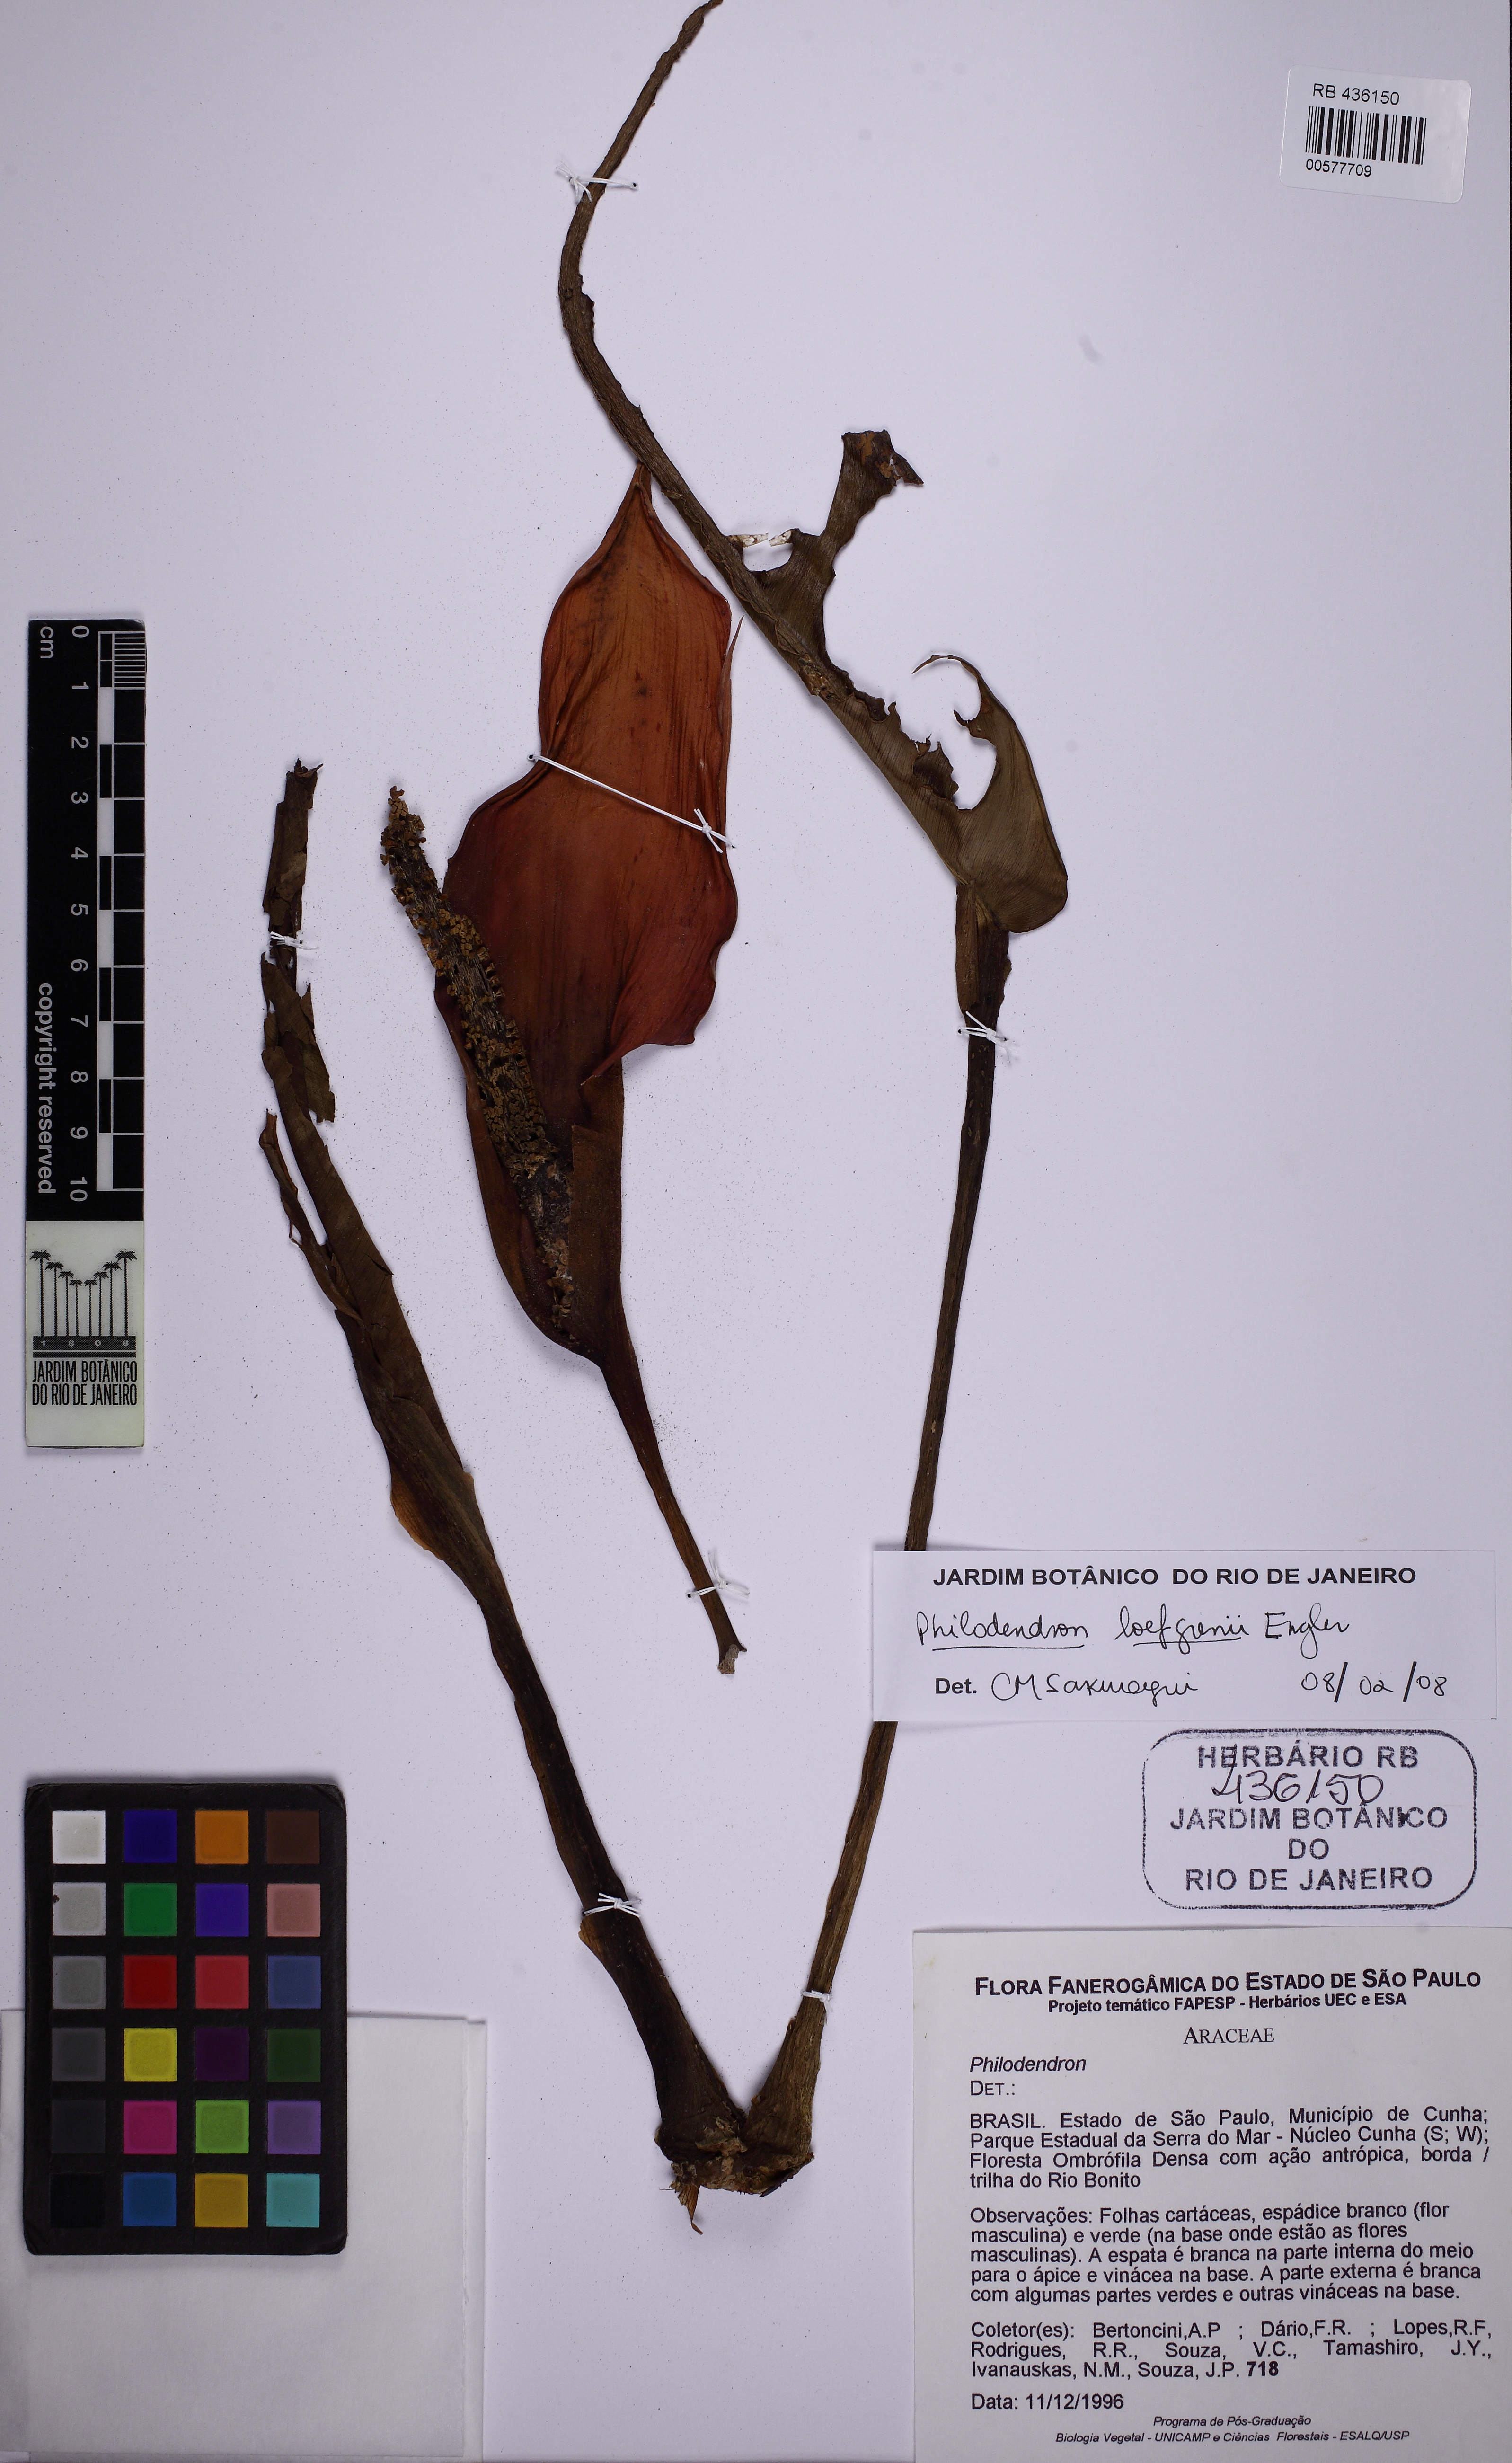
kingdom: Plantae
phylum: Tracheophyta
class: Liliopsida
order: Alismatales
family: Araceae
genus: Philodendron
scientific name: Philodendron loefgrenii
